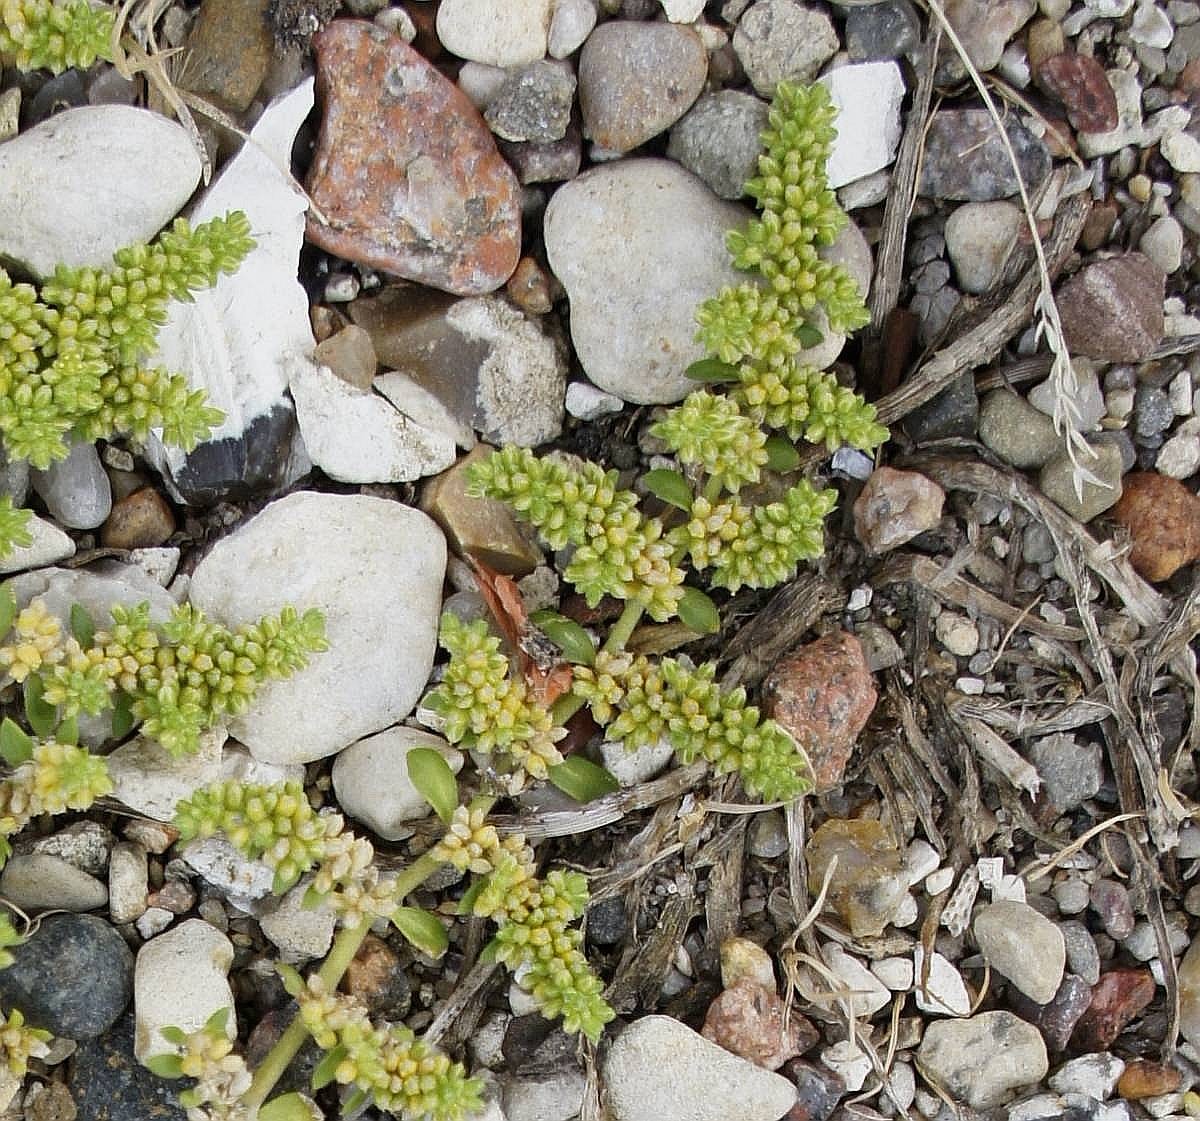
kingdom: Plantae
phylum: Tracheophyta
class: Magnoliopsida
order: Caryophyllales
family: Caryophyllaceae
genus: Herniaria
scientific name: Herniaria glabra
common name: Brudurt
